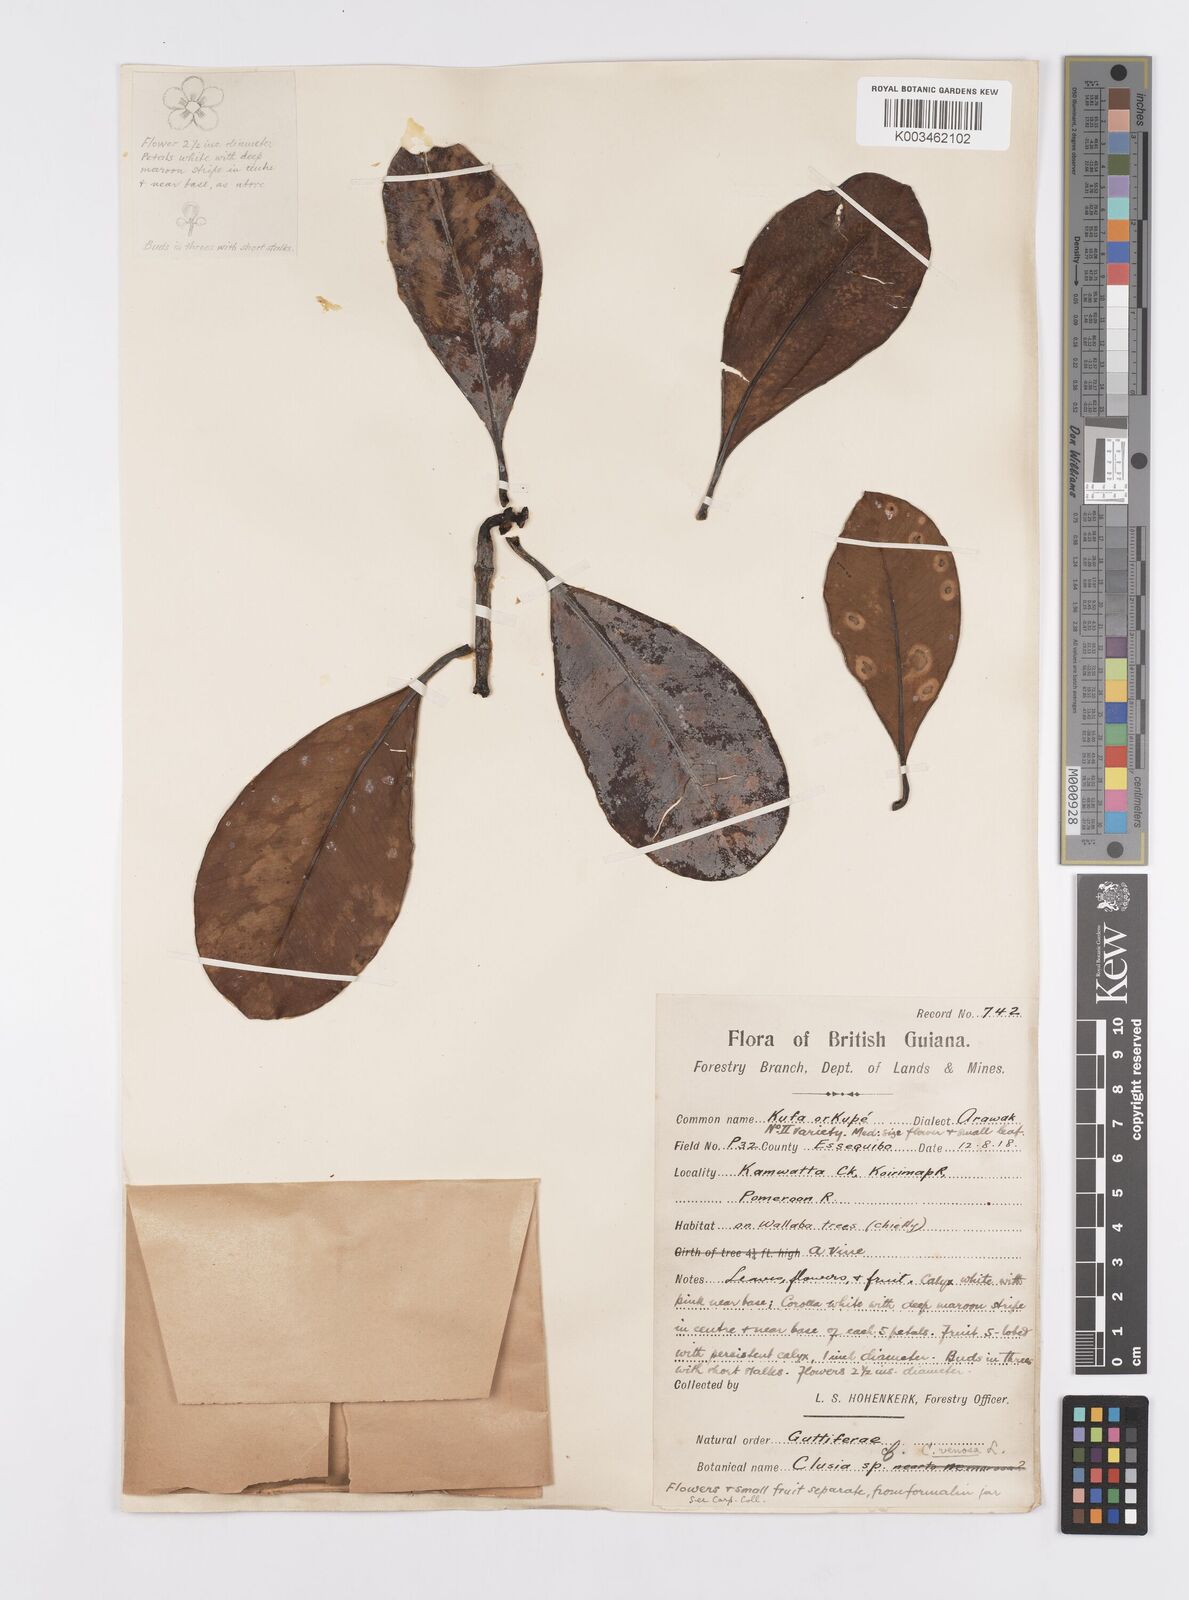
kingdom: Plantae
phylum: Tracheophyta
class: Magnoliopsida
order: Malpighiales
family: Clusiaceae
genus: Clusia
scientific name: Clusia minor
